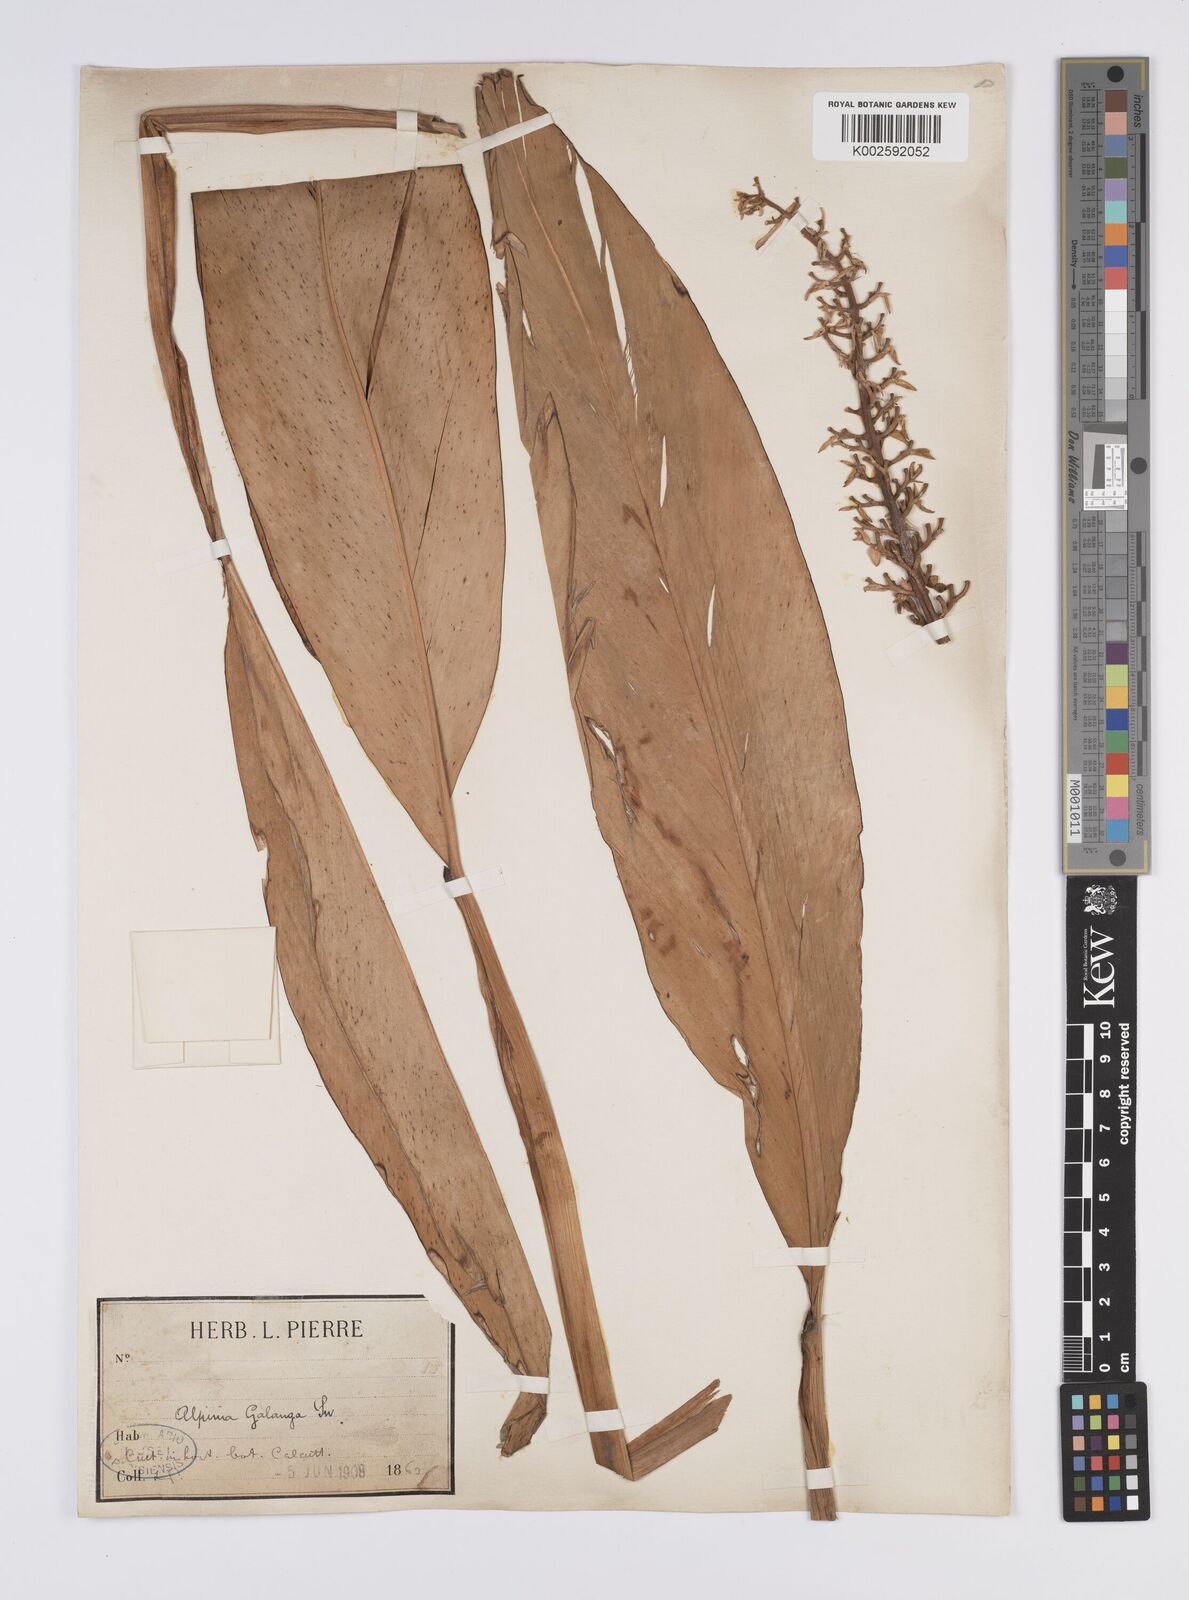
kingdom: Plantae
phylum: Tracheophyta
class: Liliopsida
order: Zingiberales
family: Zingiberaceae
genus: Alpinia
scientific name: Alpinia
